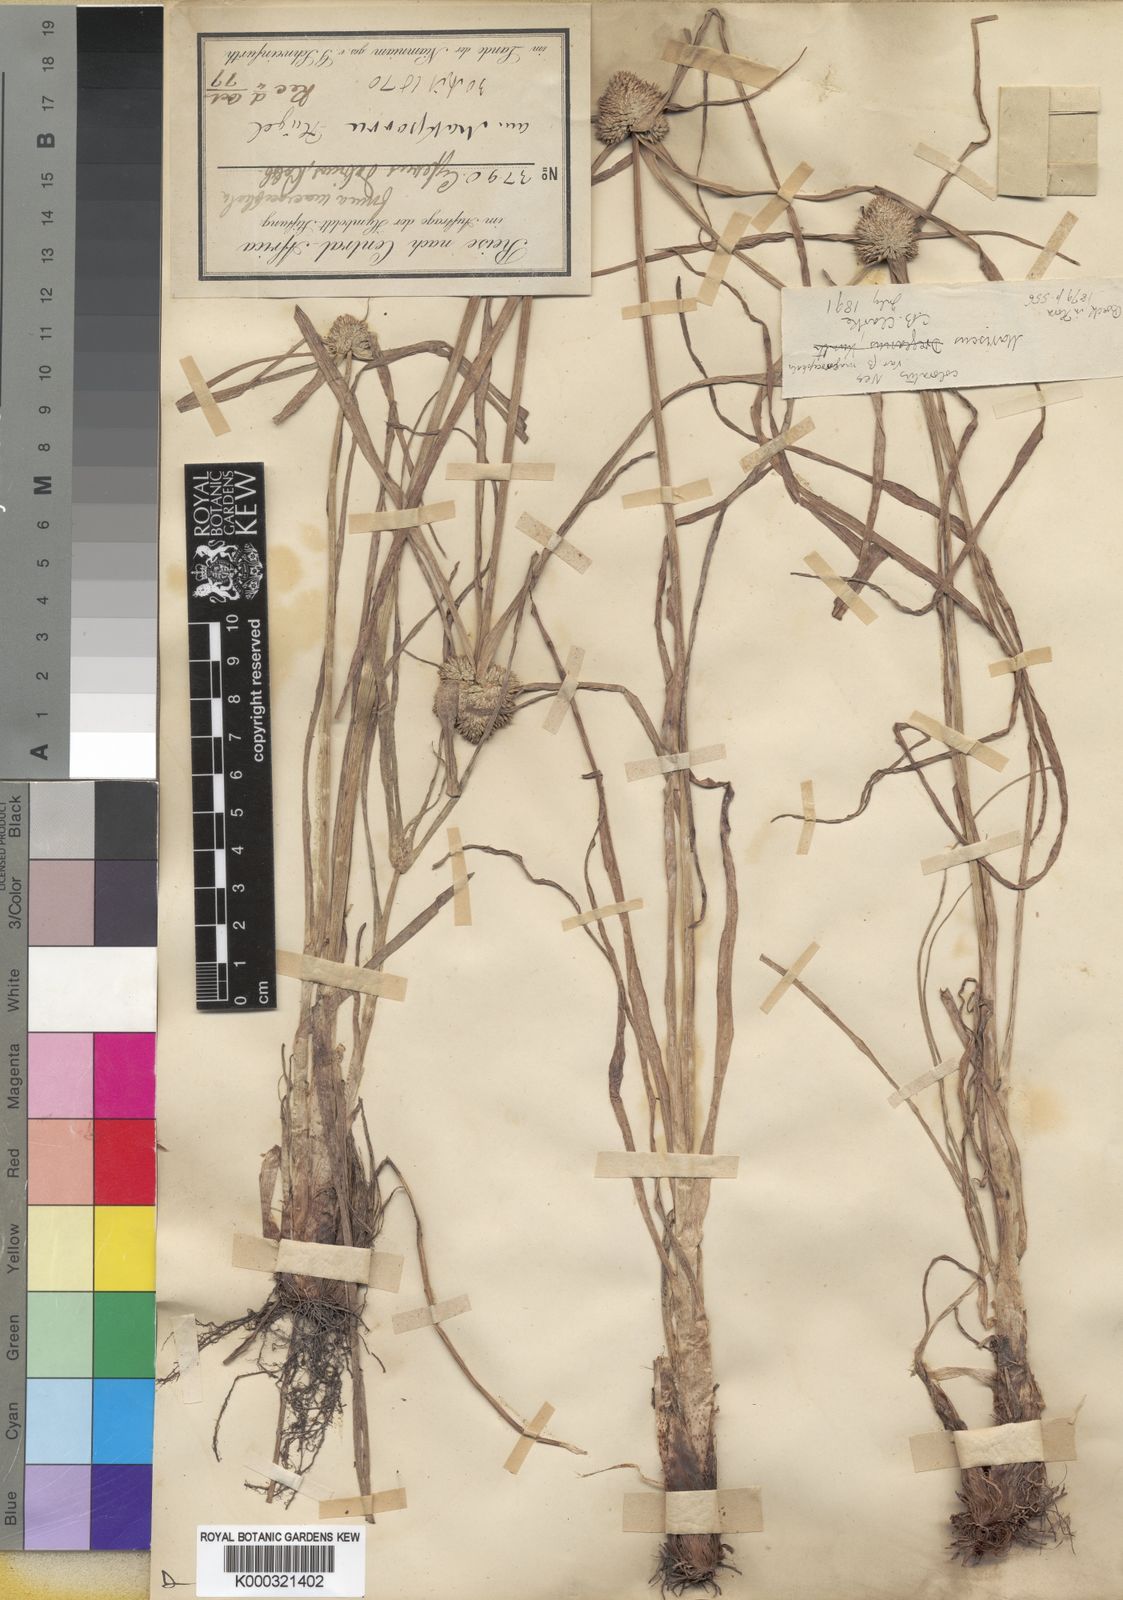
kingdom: Plantae
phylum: Tracheophyta
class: Liliopsida
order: Poales
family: Cyperaceae
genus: Cyperus
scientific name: Cyperus dubius
